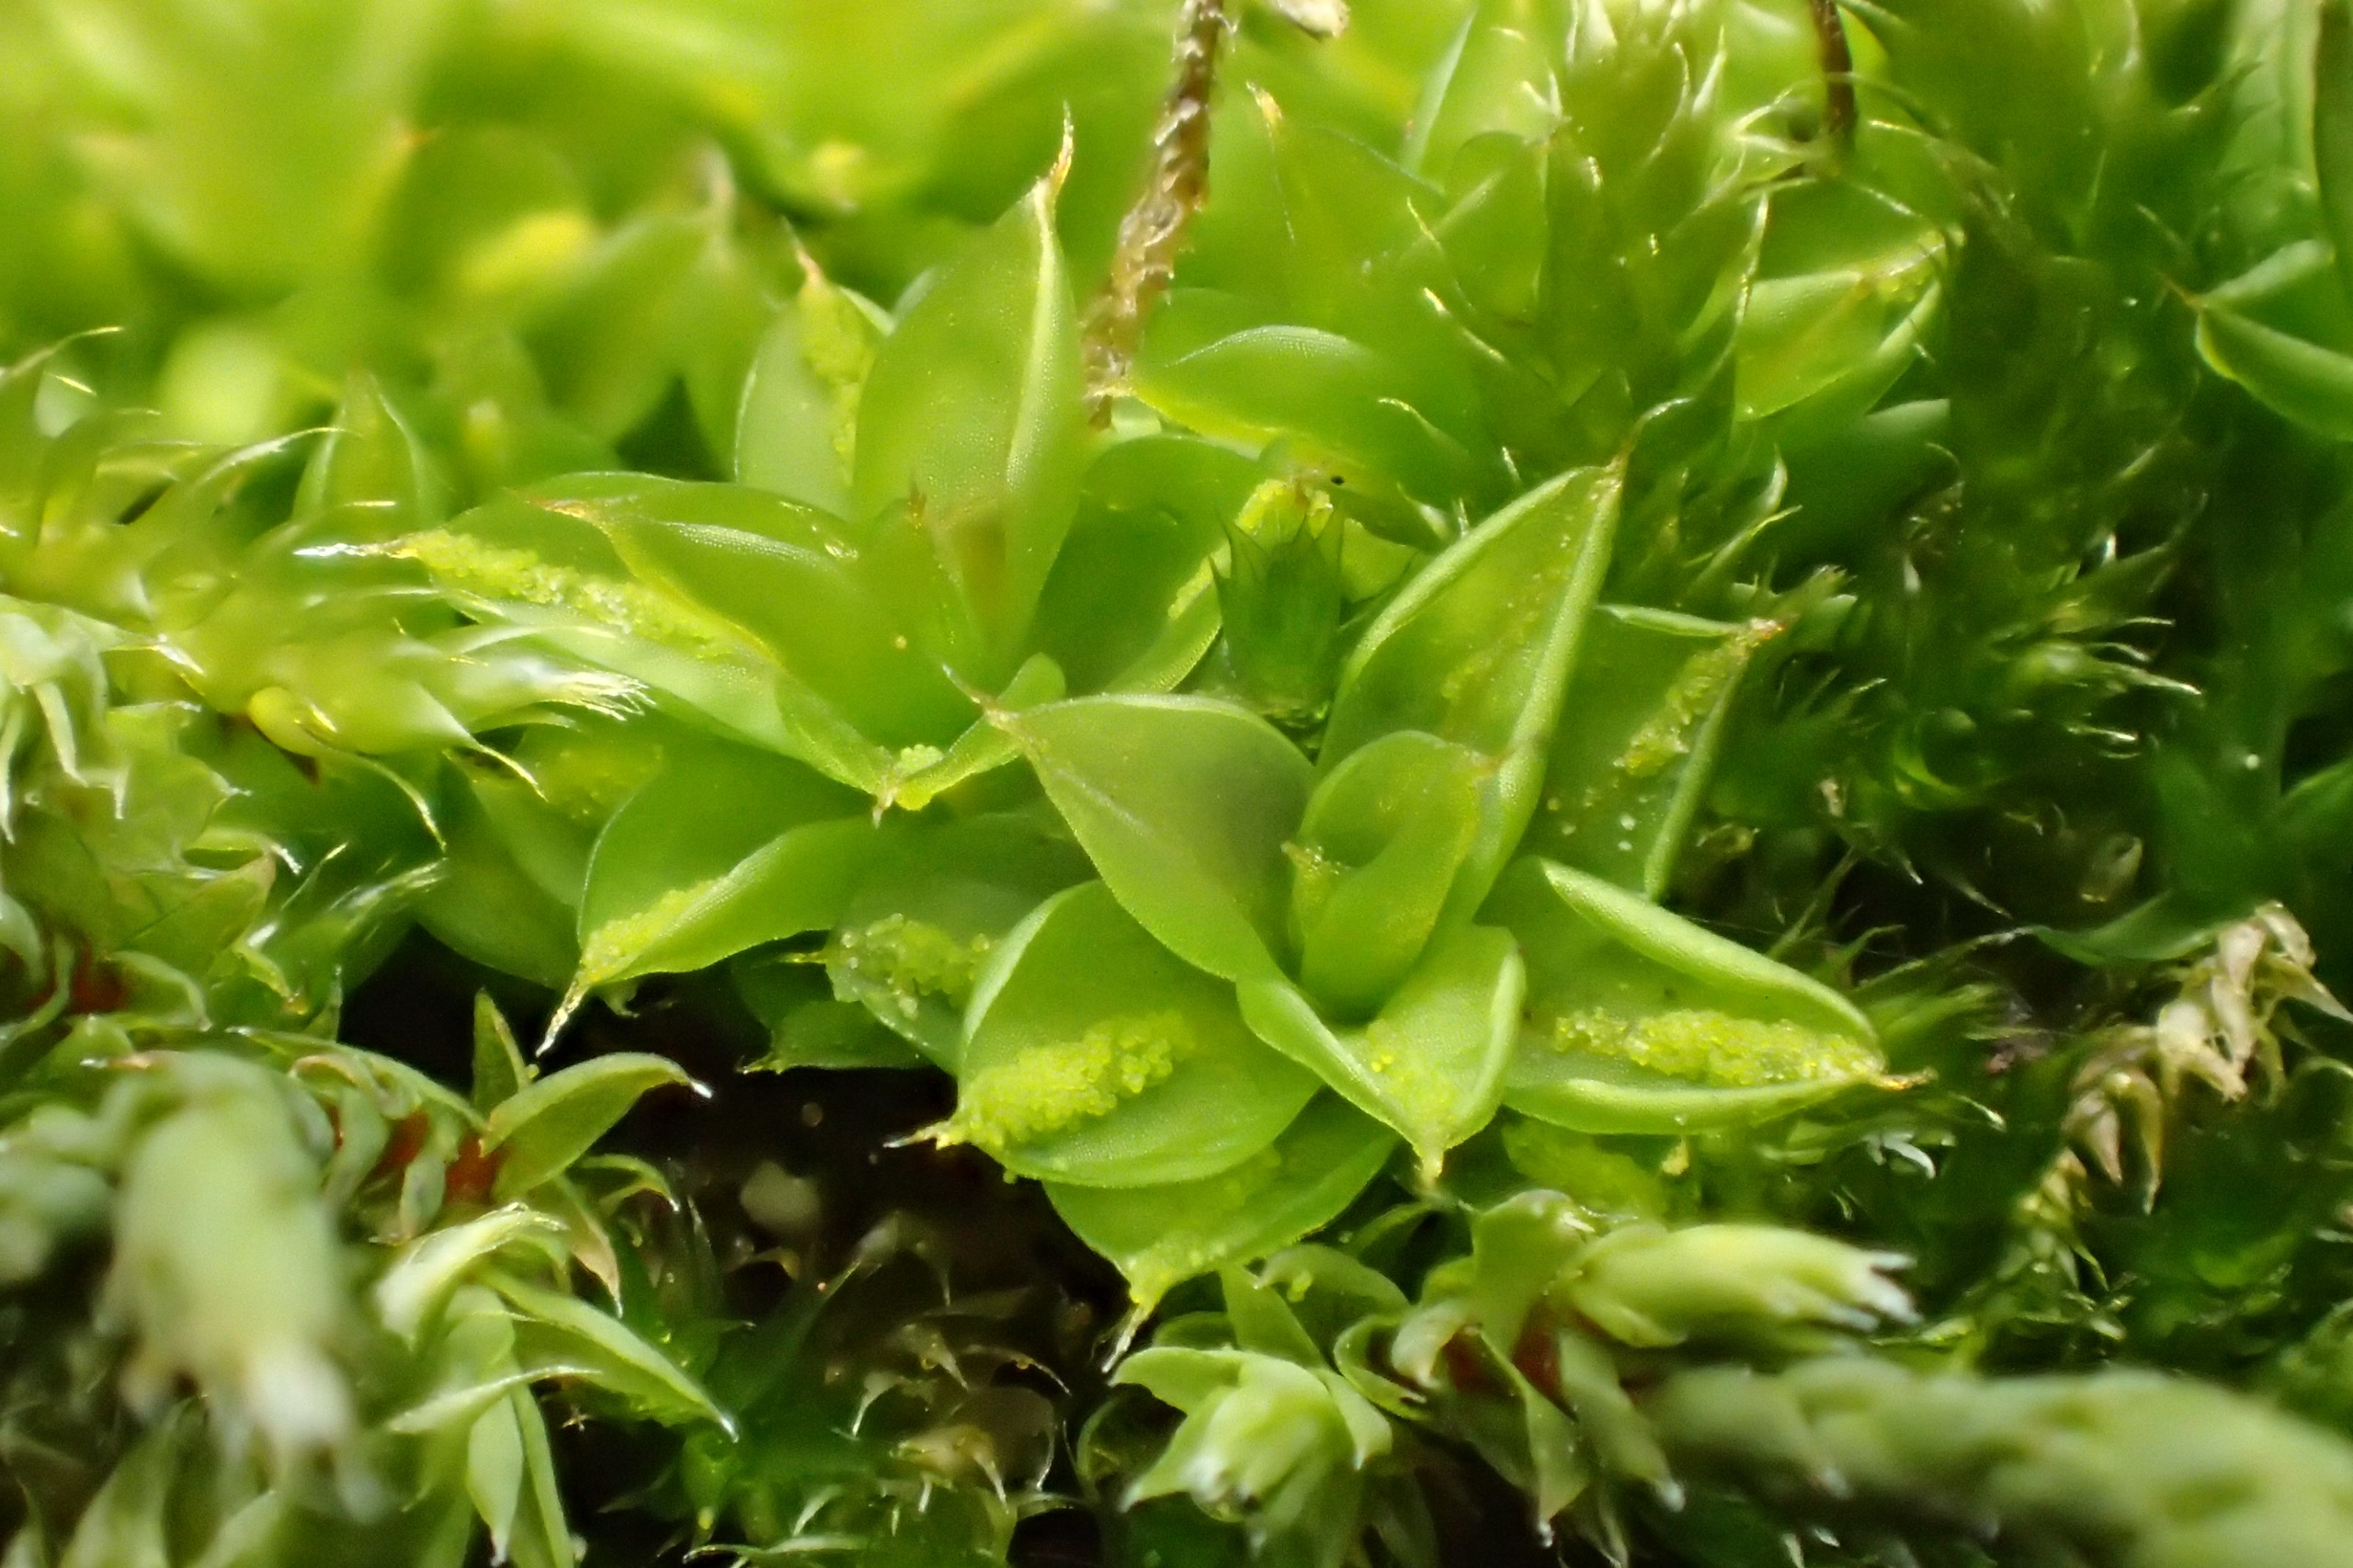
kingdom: Plantae
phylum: Bryophyta
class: Bryopsida
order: Pottiales
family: Pottiaceae
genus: Syntrichia
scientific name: Syntrichia papillosa
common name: Bark-hårstjerne
